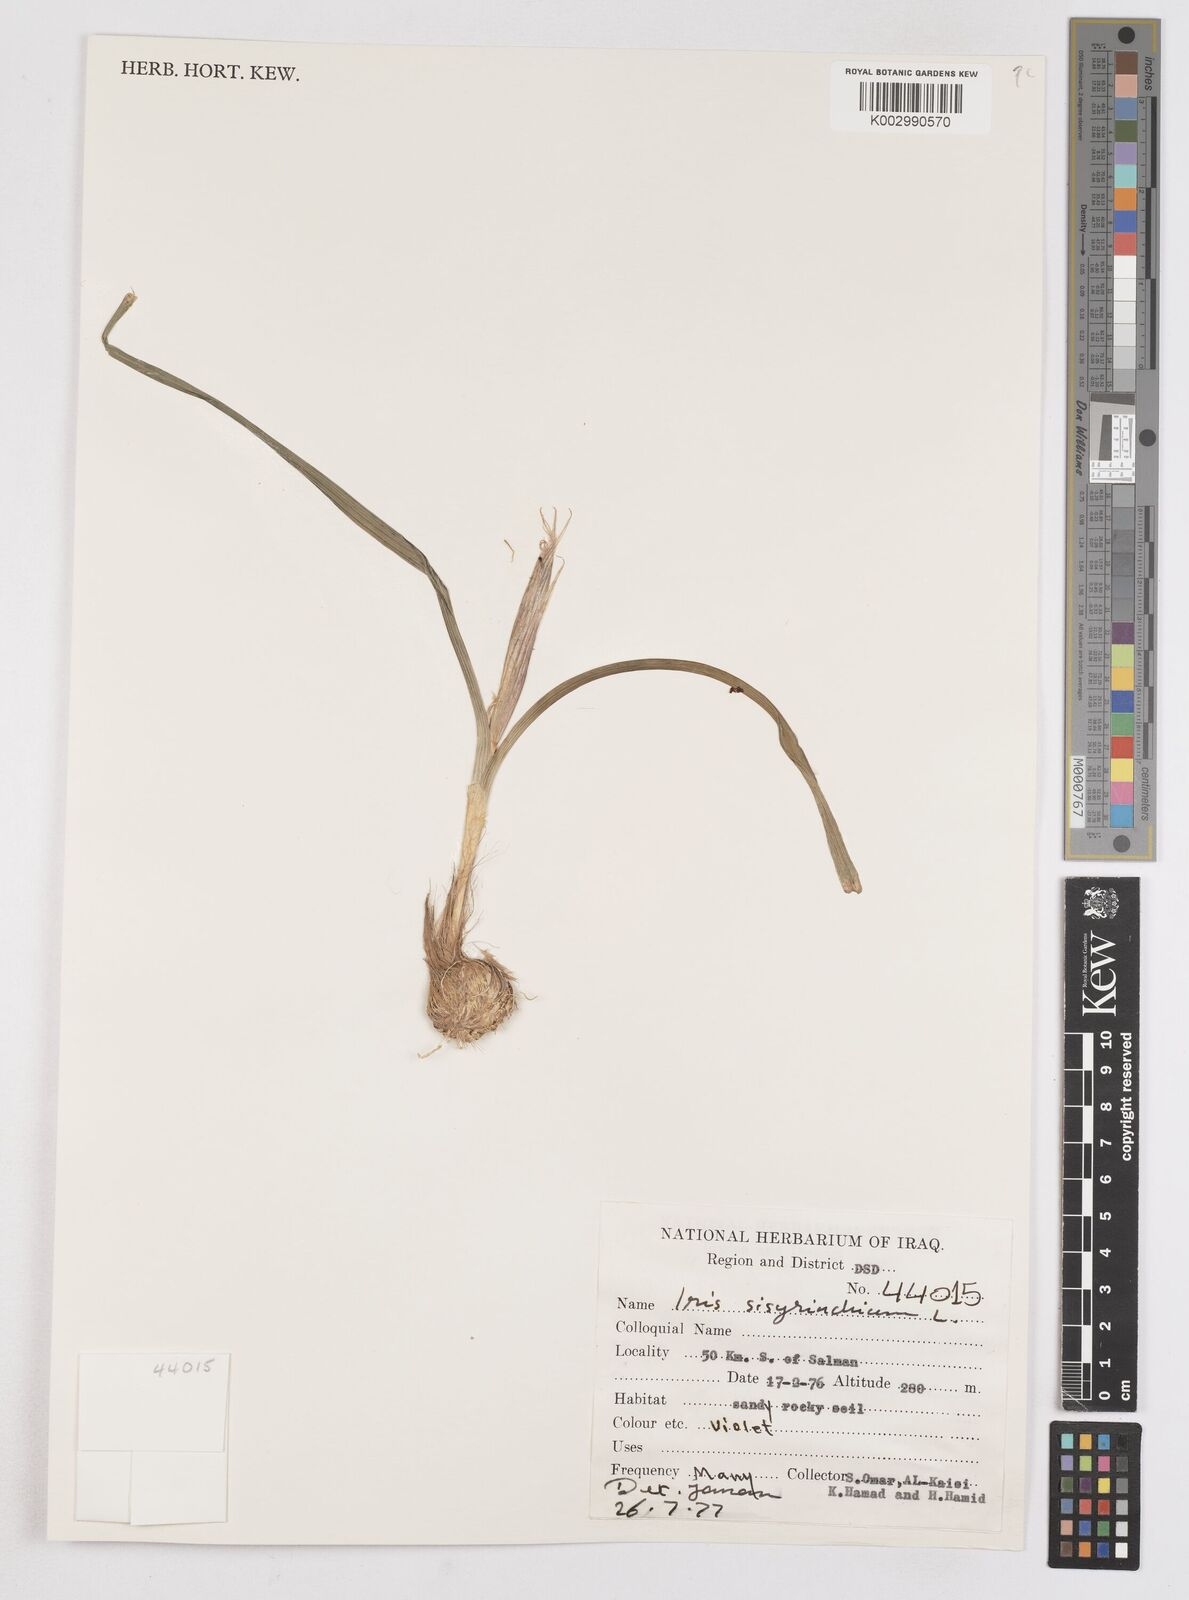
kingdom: Plantae
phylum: Tracheophyta
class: Liliopsida
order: Asparagales
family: Iridaceae
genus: Moraea
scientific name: Moraea sisyrinchium
